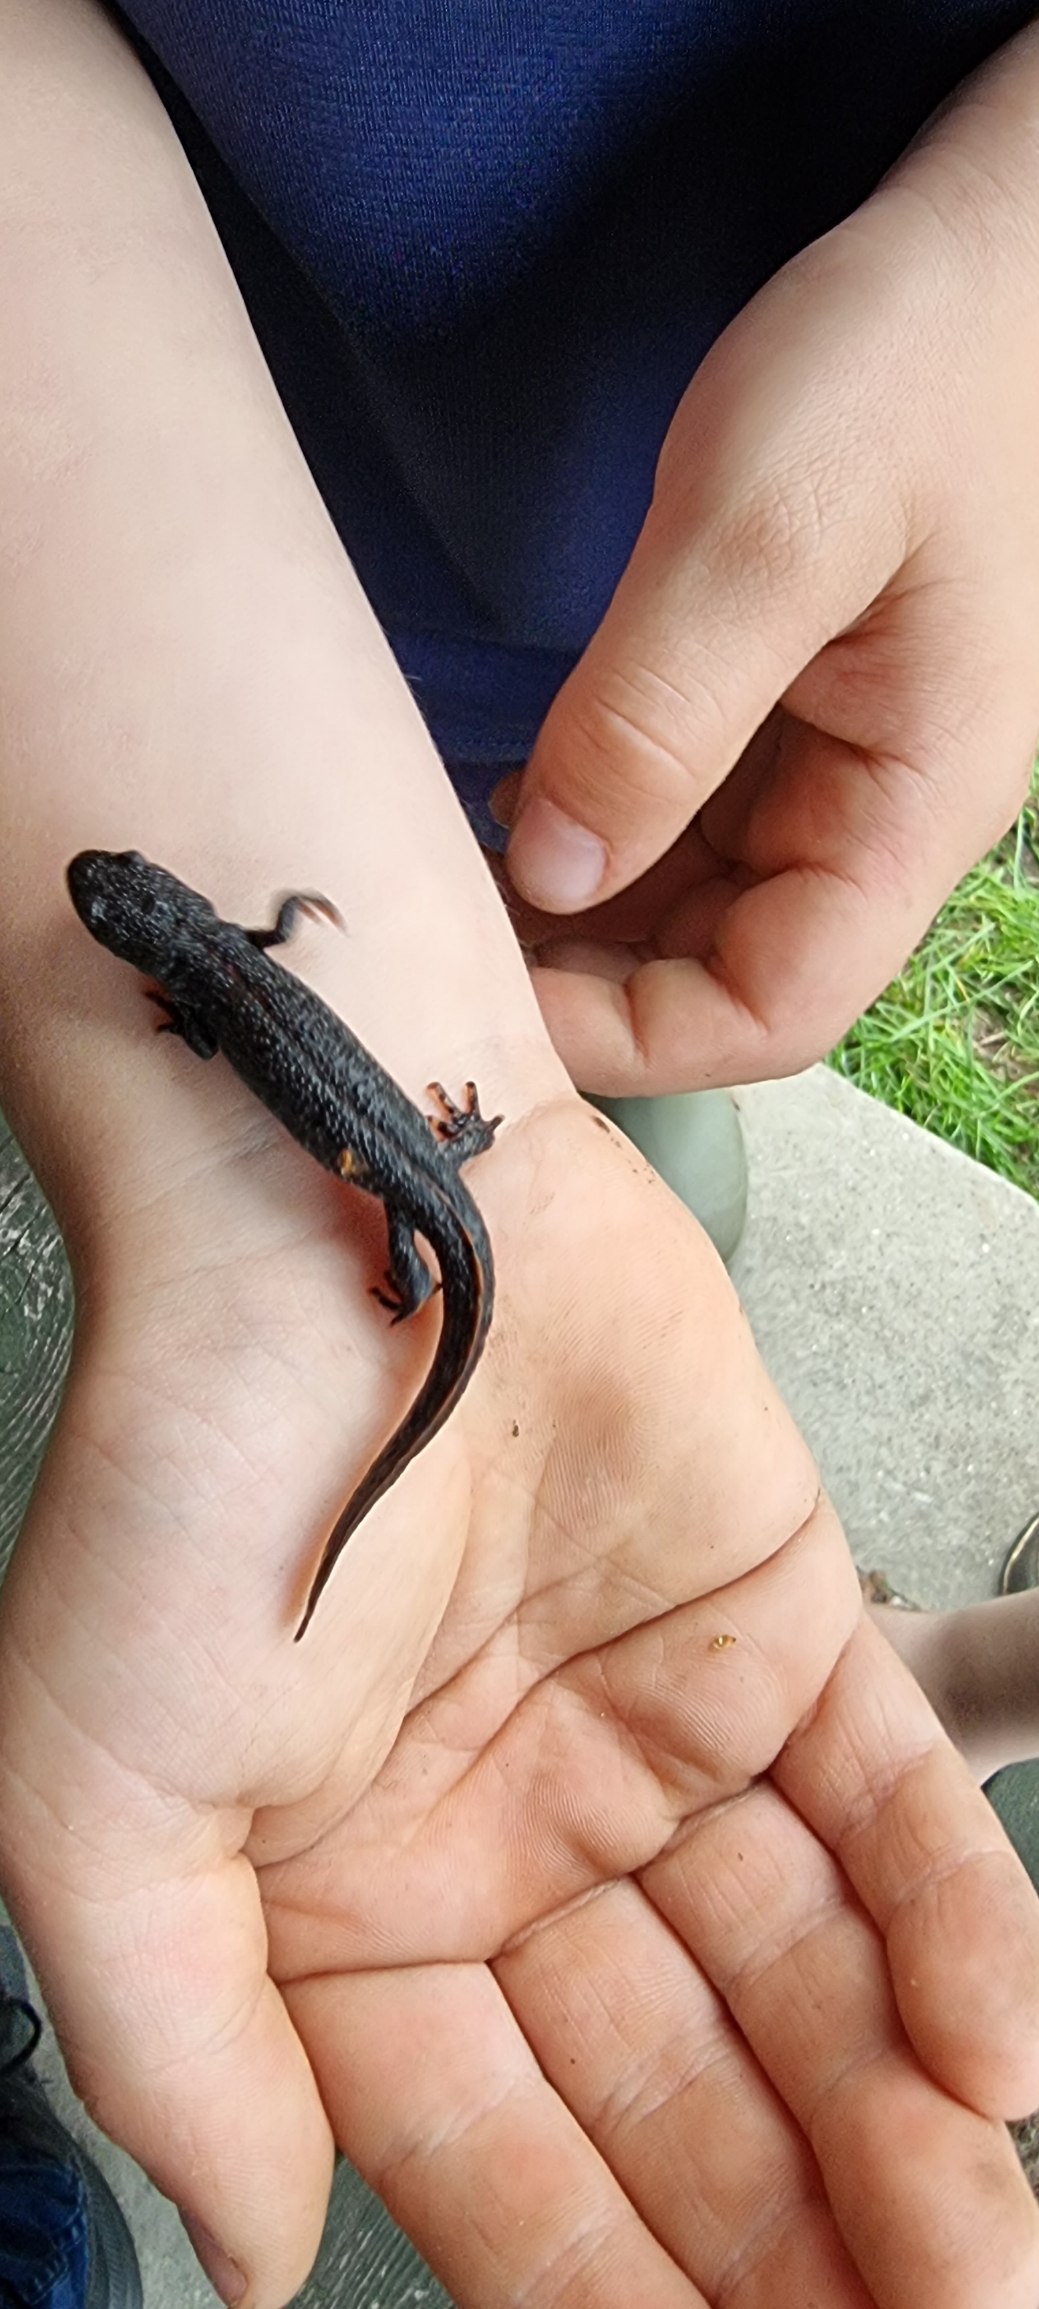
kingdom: Animalia
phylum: Chordata
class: Amphibia
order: Caudata
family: Salamandridae
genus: Triturus
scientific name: Triturus cristatus
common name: Stor vandsalamander
